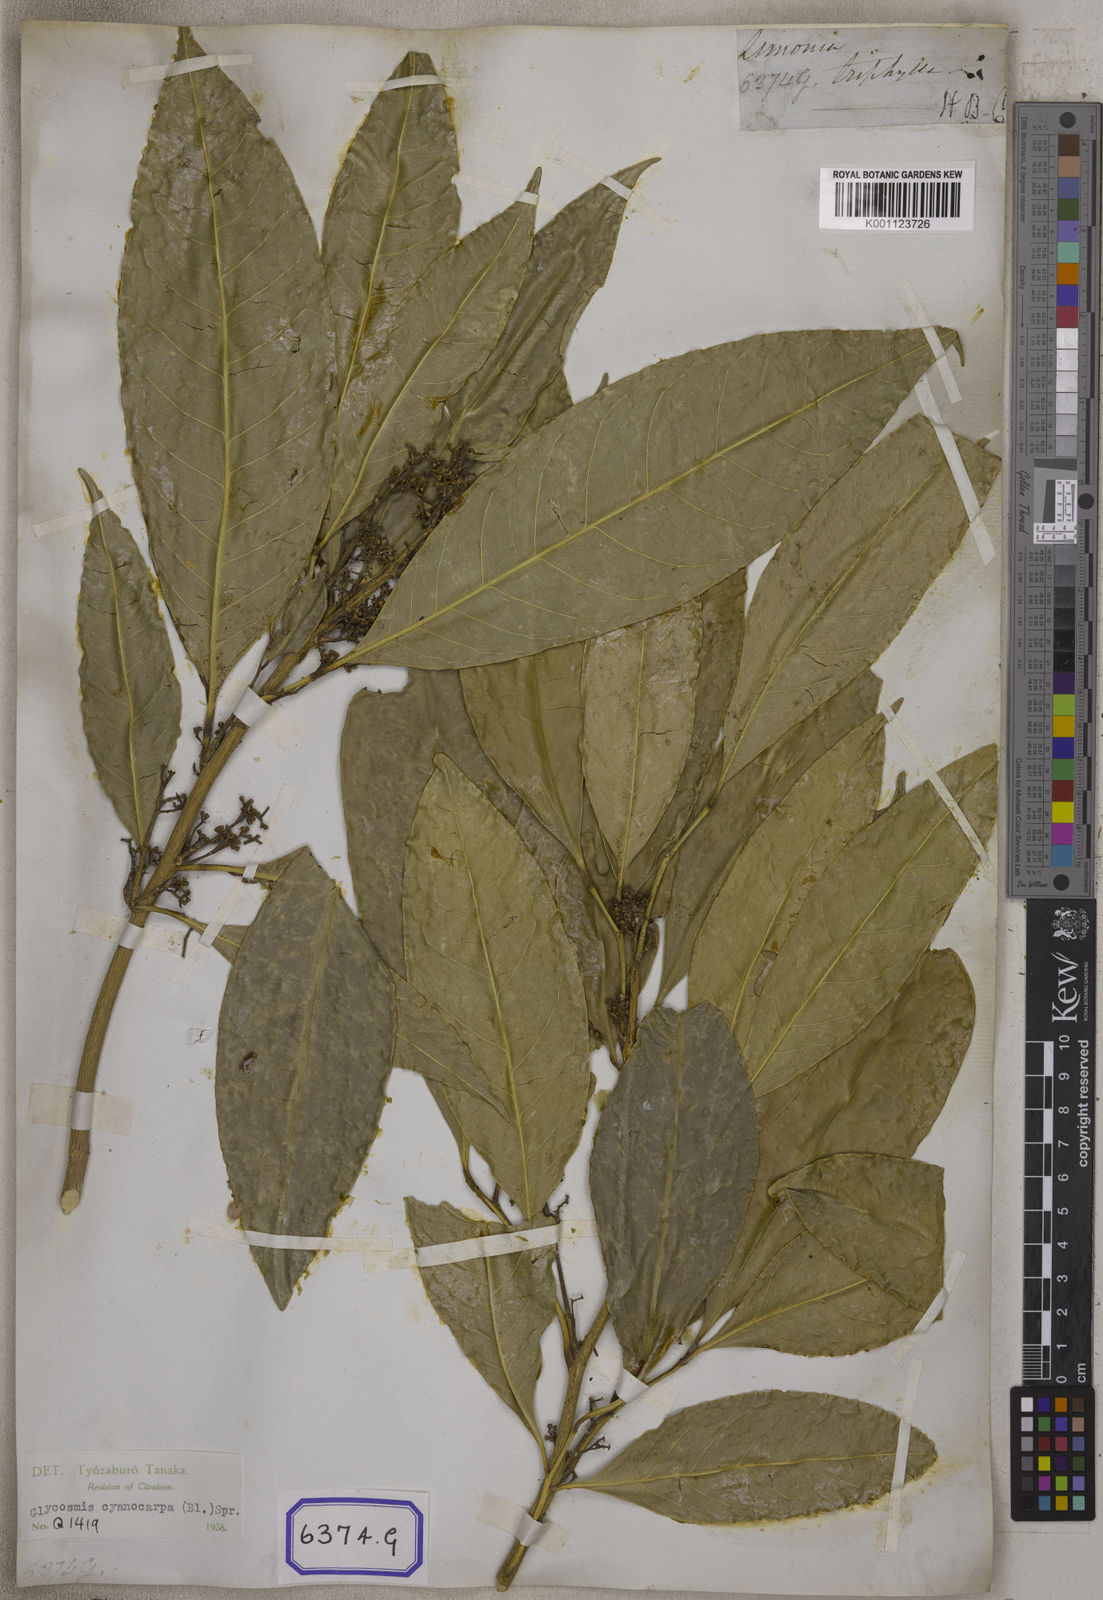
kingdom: Plantae
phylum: Tracheophyta
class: Magnoliopsida
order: Sapindales
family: Rutaceae
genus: Glycosmis
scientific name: Glycosmis pentaphylla
